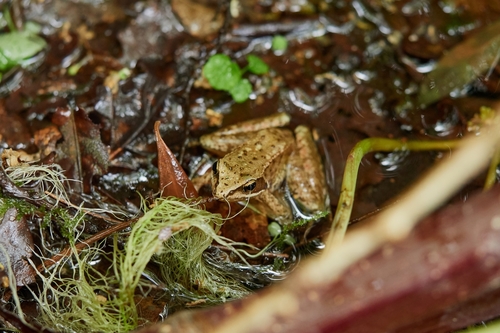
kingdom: Animalia
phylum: Chordata
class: Amphibia
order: Anura
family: Ranidae
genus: Rana
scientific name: Rana iberica
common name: Iberian frog
